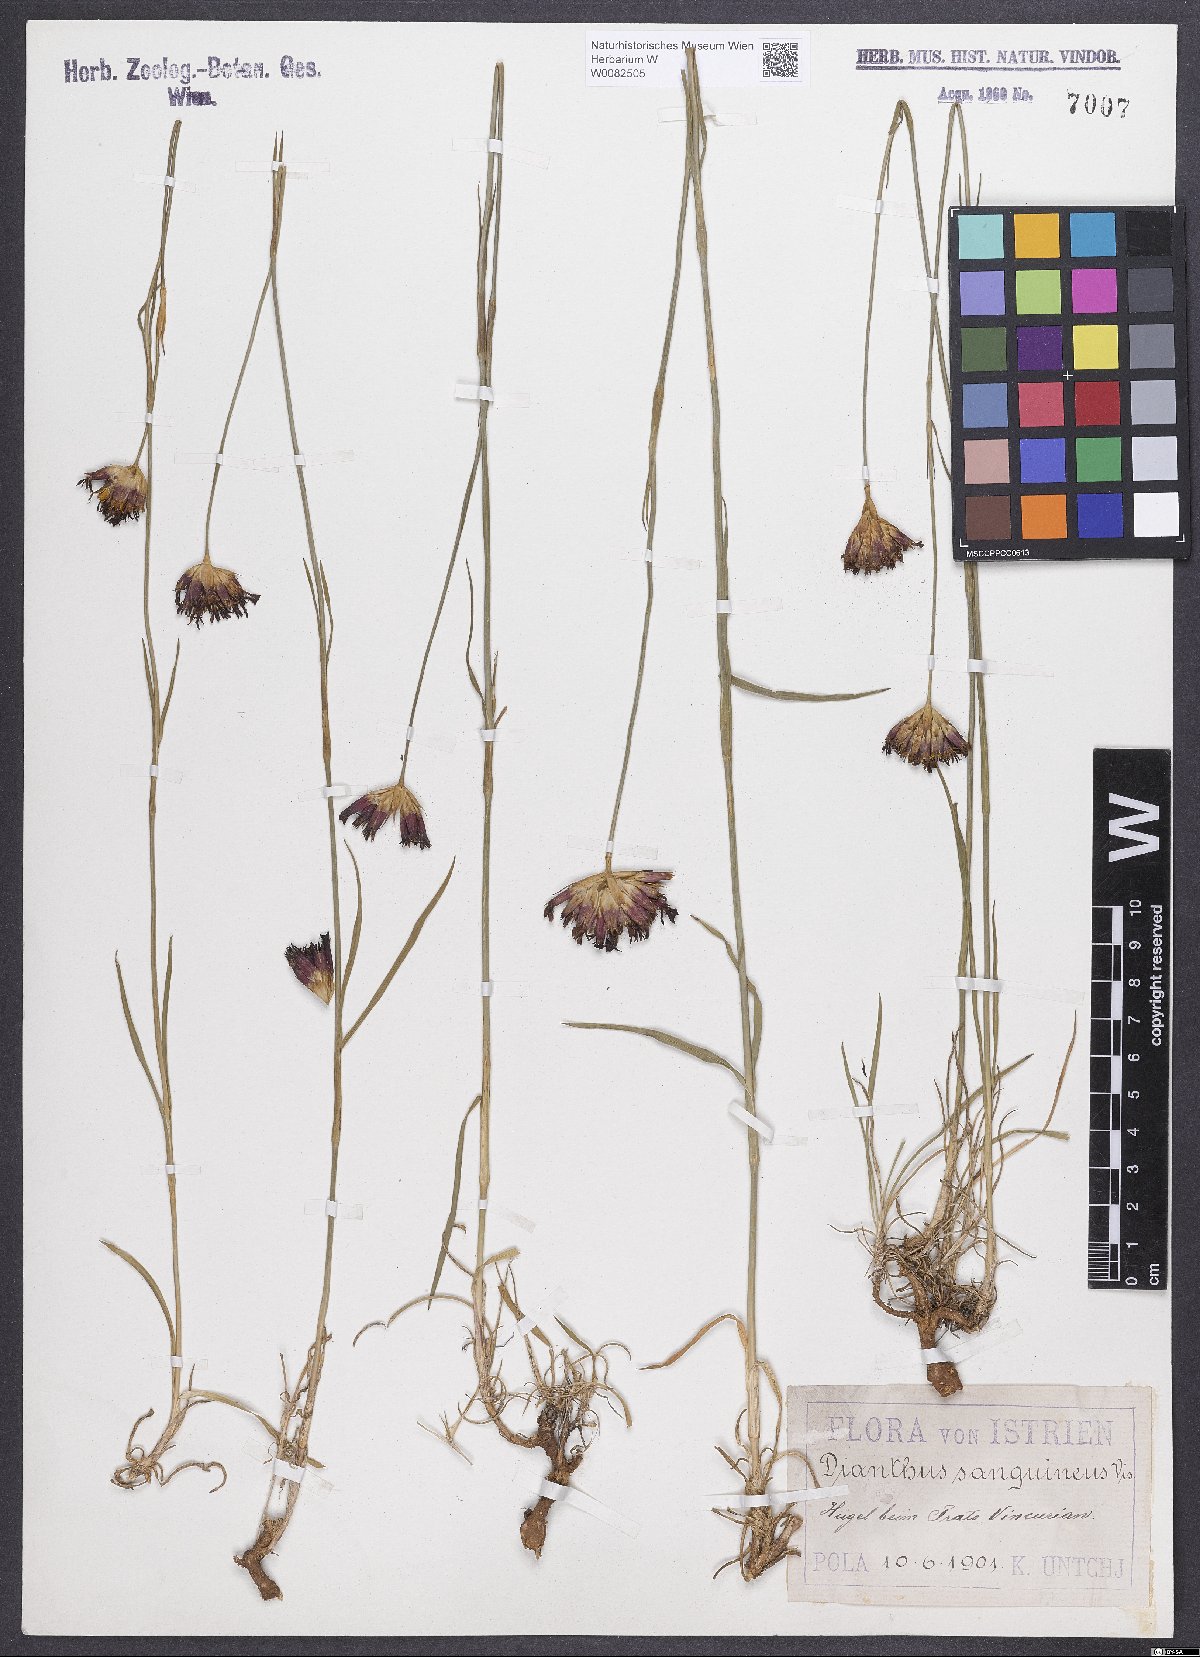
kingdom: Plantae
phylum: Tracheophyta
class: Magnoliopsida
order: Caryophyllales
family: Caryophyllaceae
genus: Dianthus
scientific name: Dianthus carthusianorum
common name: Carthusian pink
